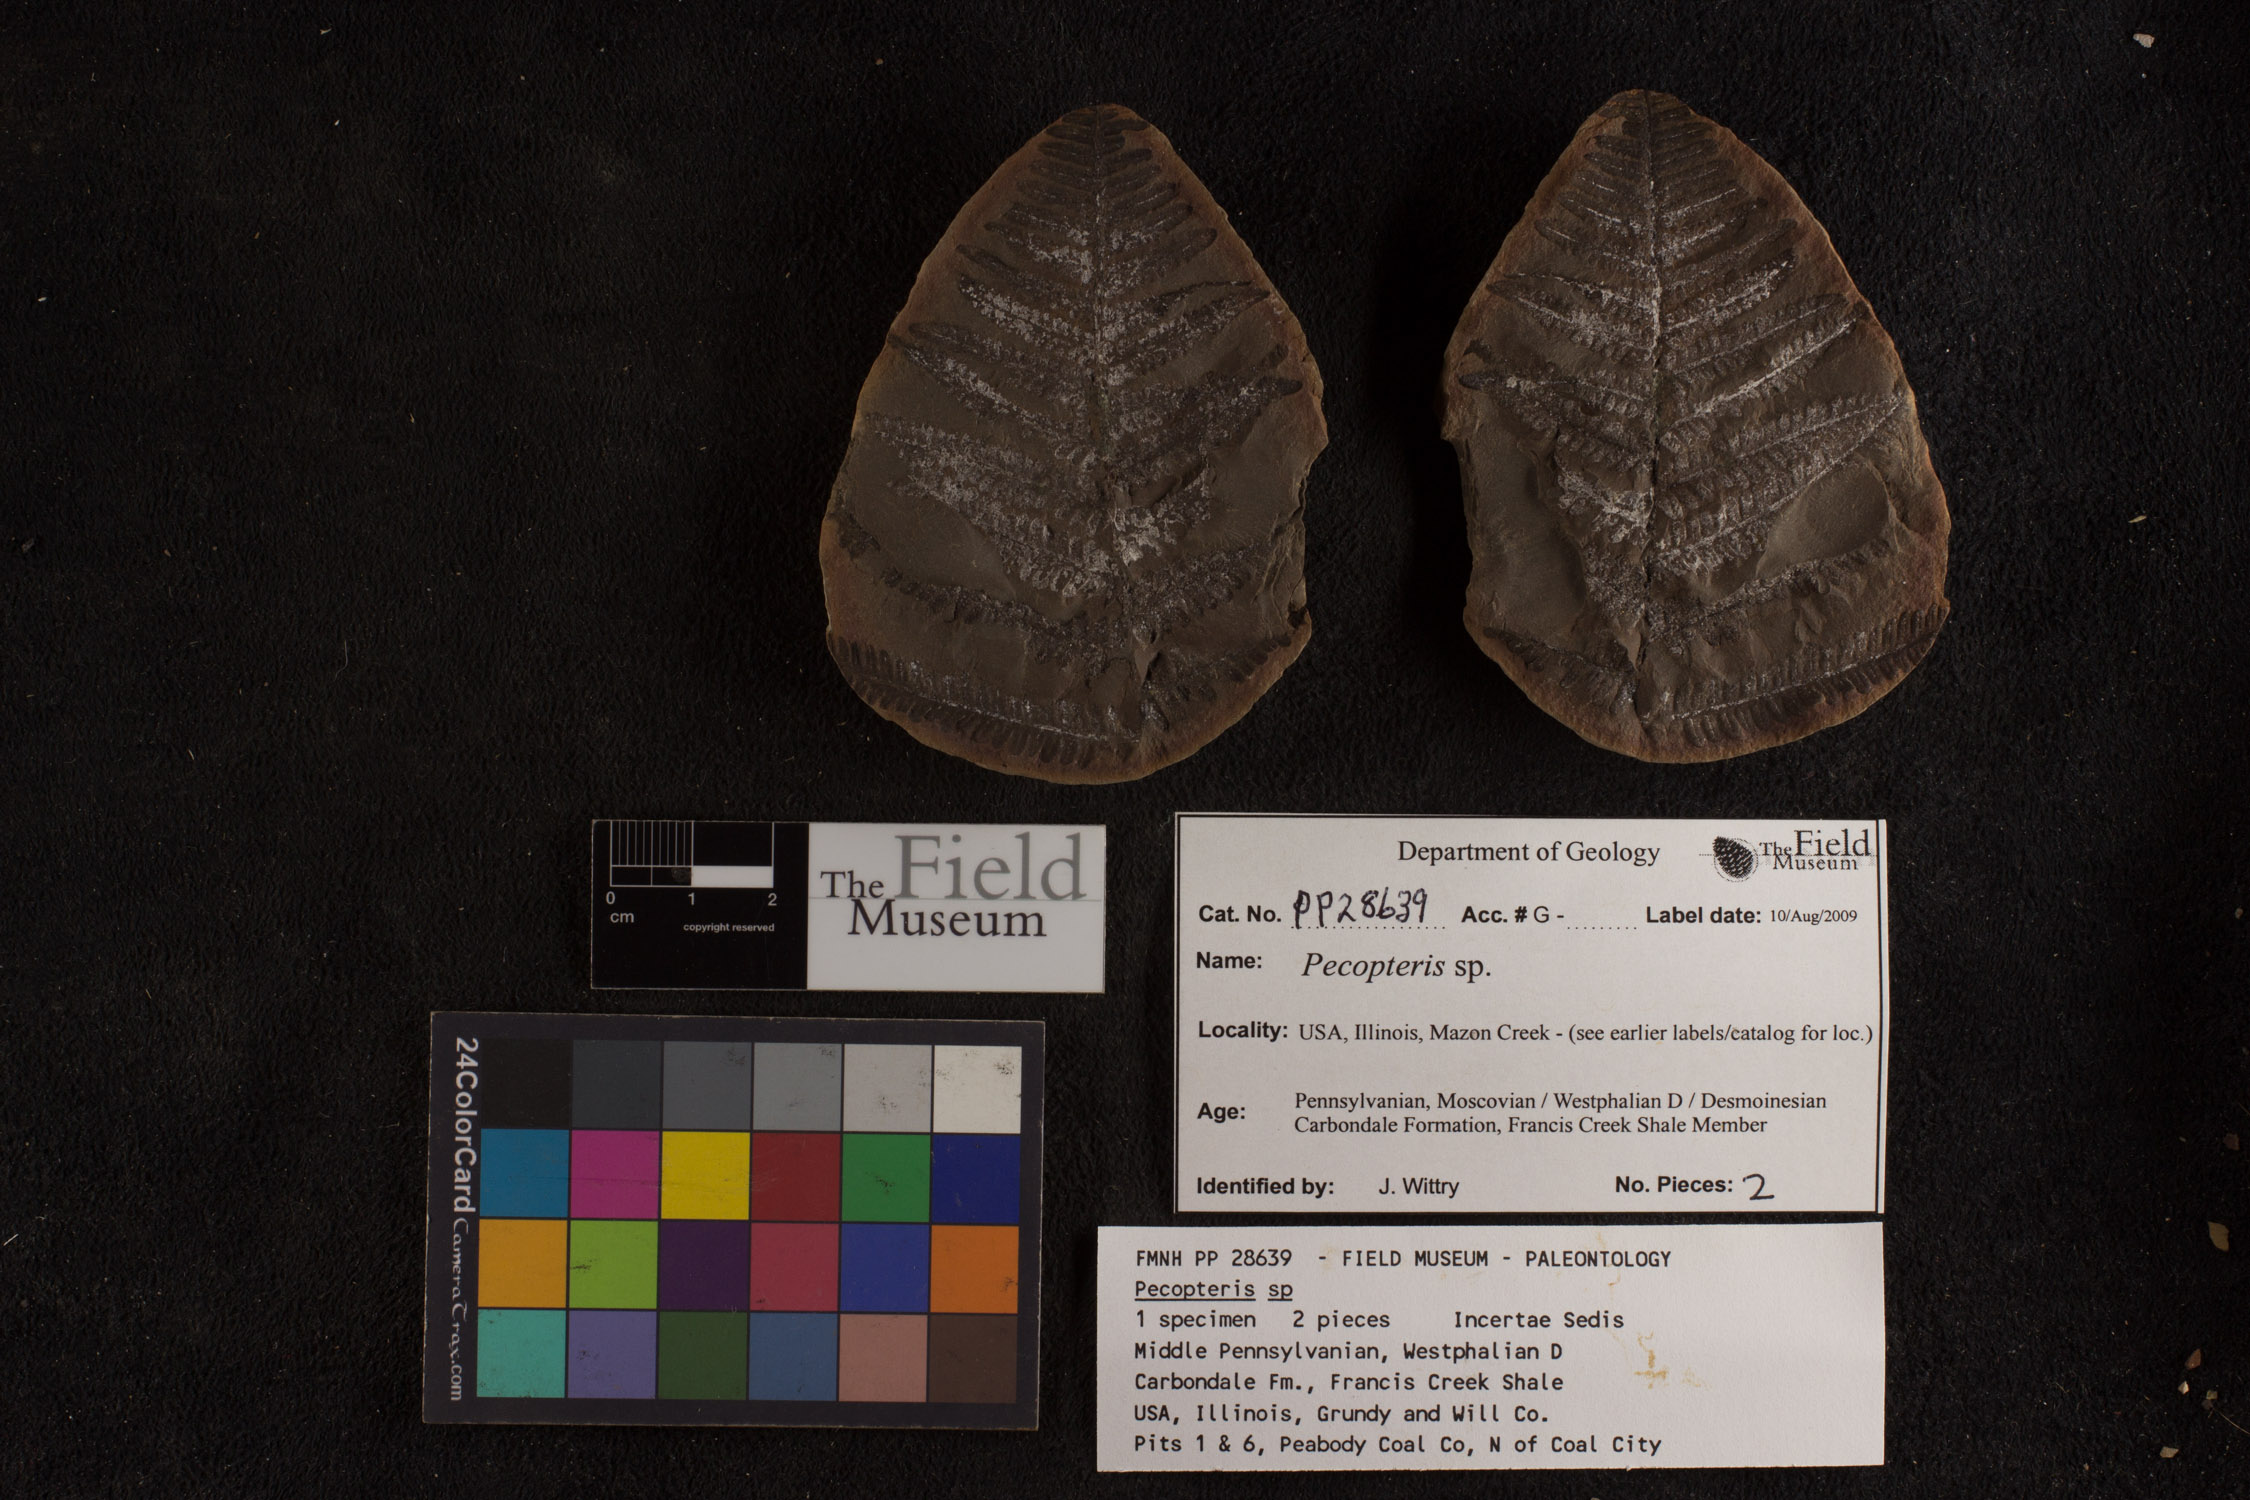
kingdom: Plantae
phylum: Tracheophyta
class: Polypodiopsida
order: Marattiales
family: Asterothecaceae
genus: Pecopteris
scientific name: Pecopteris
